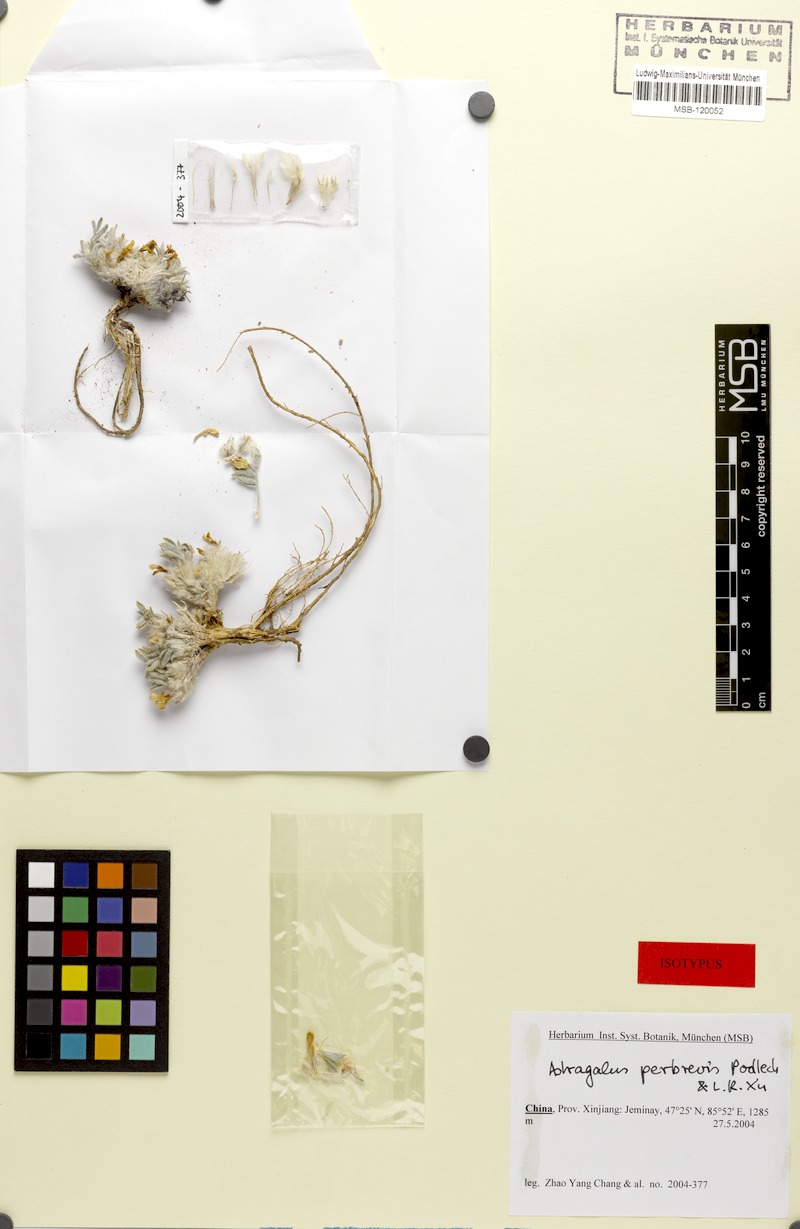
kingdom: Plantae
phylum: Tracheophyta
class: Magnoliopsida
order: Fabales
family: Fabaceae
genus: Astragalus
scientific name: Astragalus perbrevis
